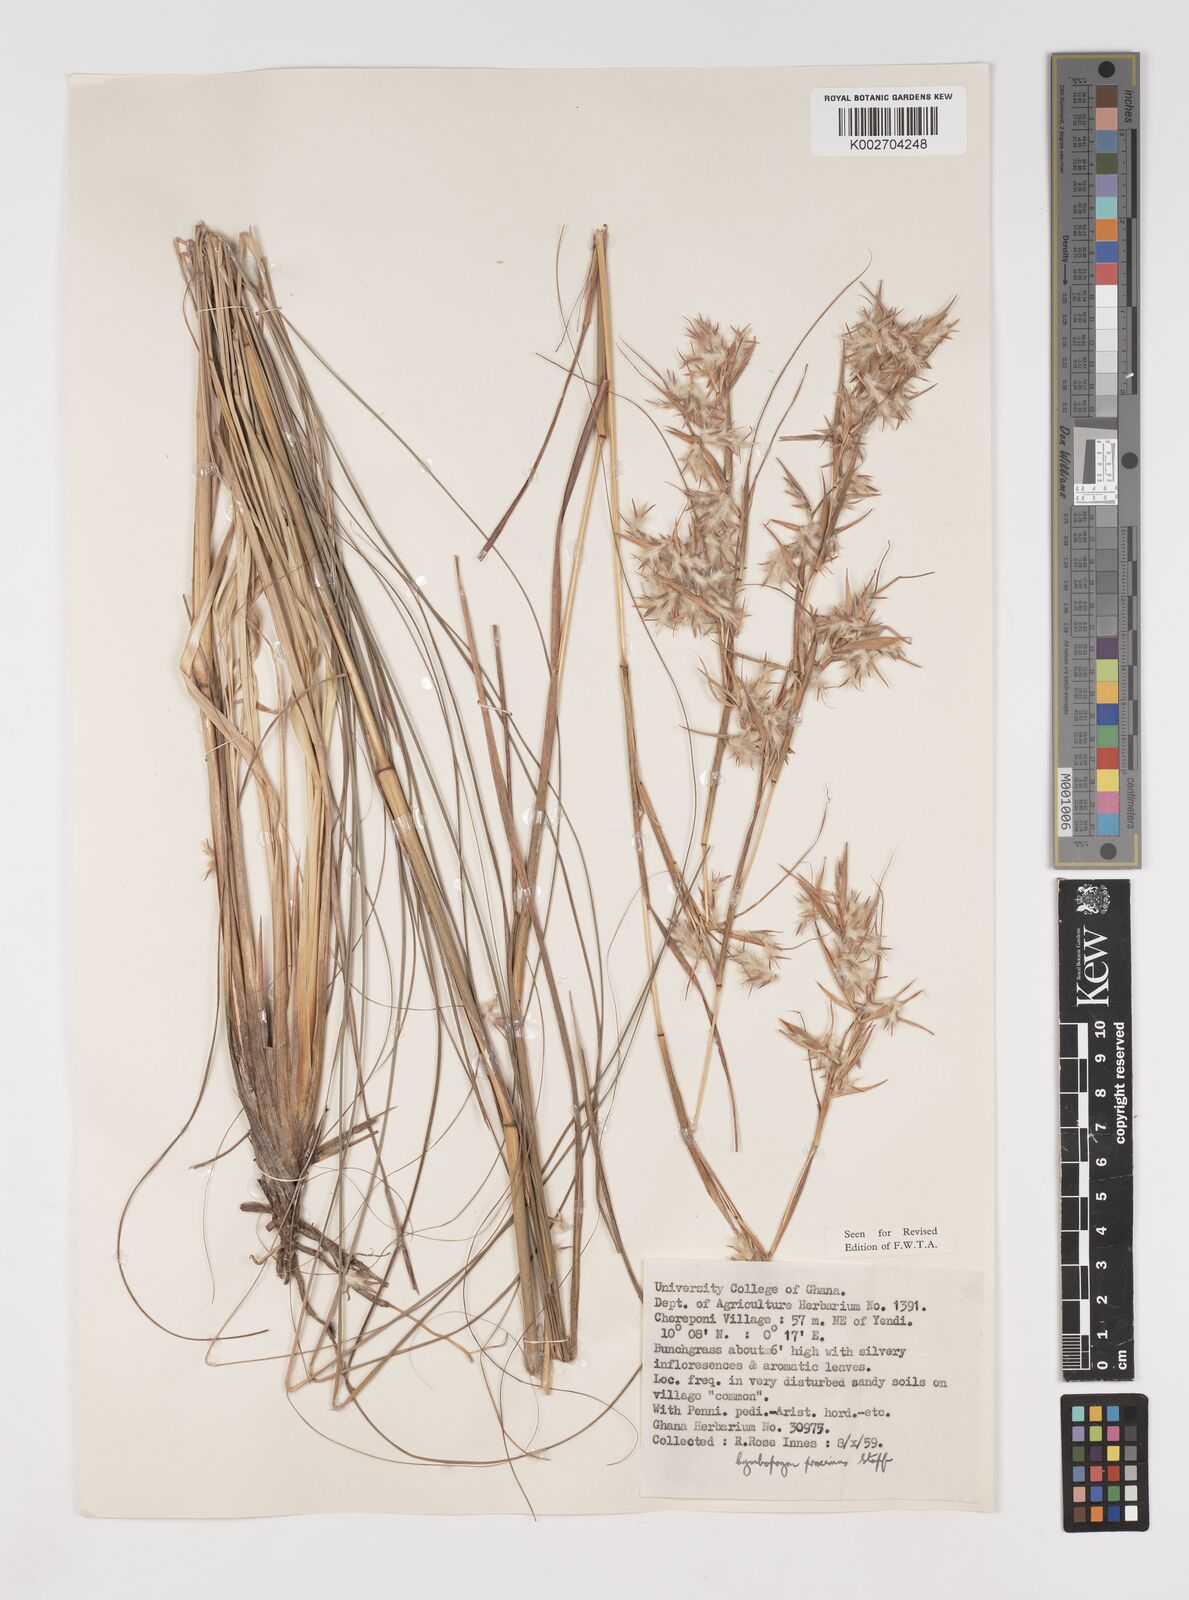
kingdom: Plantae
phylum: Tracheophyta
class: Liliopsida
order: Poales
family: Poaceae
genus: Cymbopogon
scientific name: Cymbopogon schoenanthus
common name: Geranium grass
